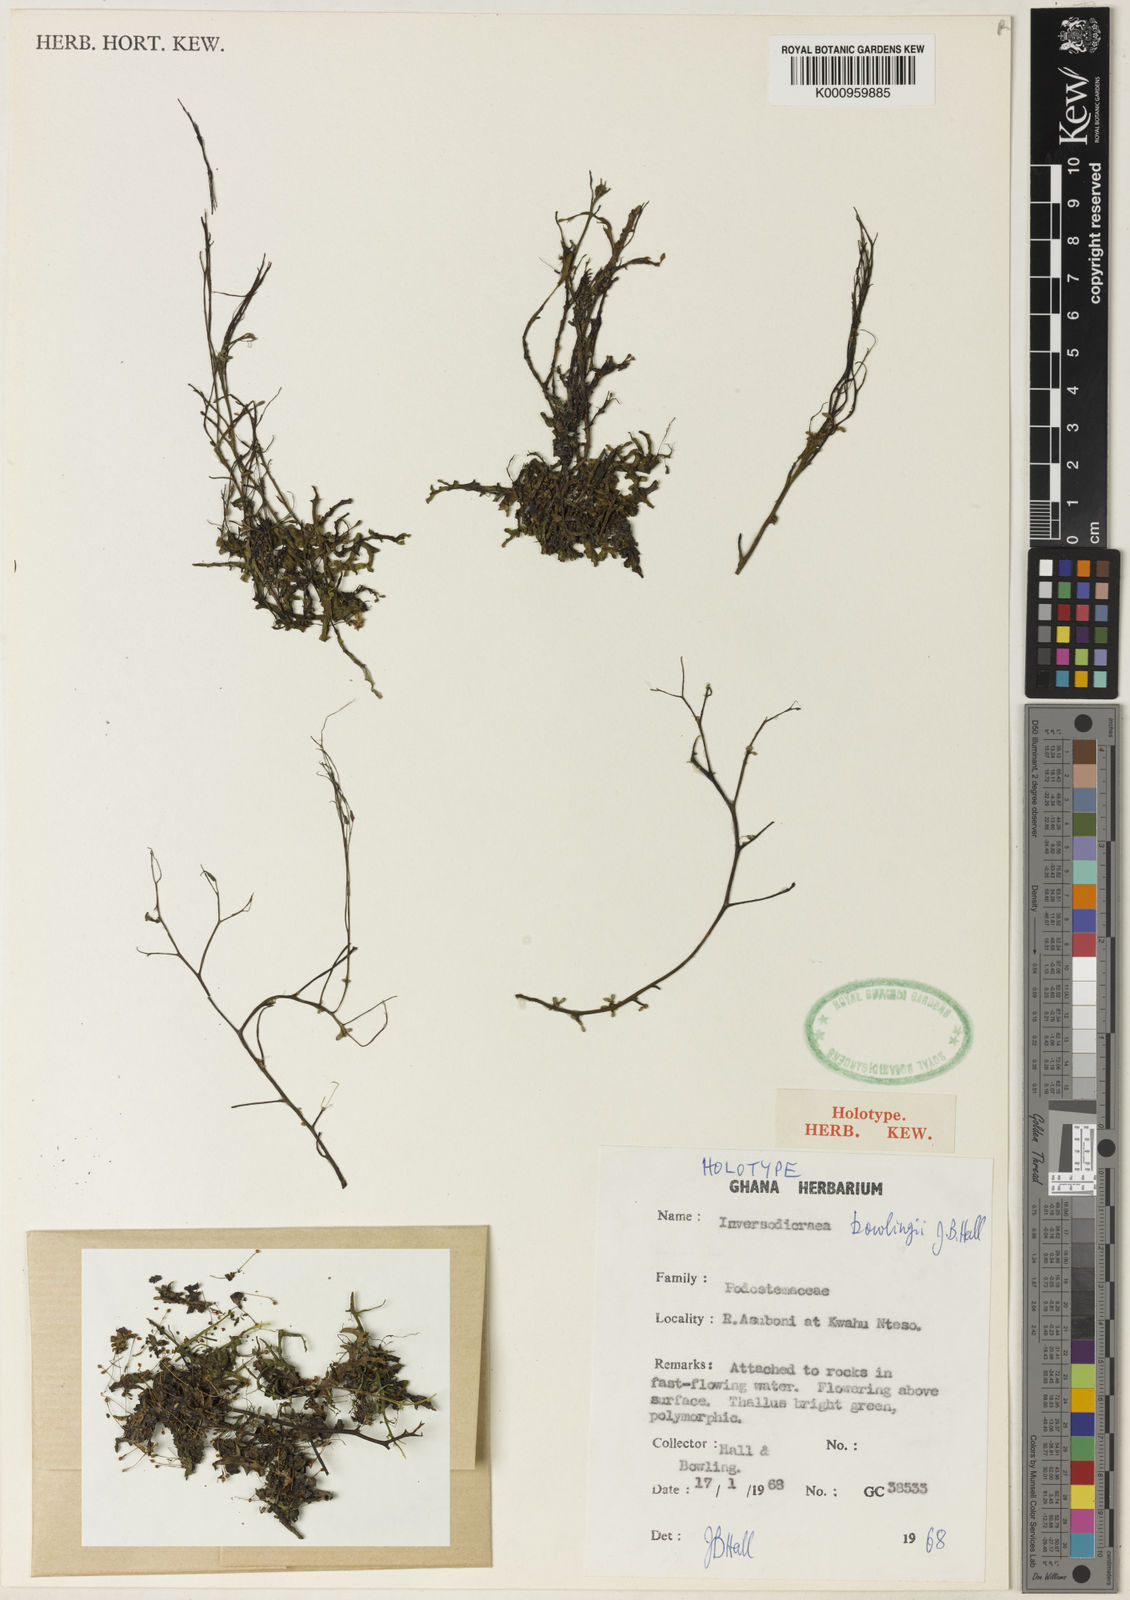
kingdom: Plantae
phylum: Tracheophyta
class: Magnoliopsida
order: Malpighiales
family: Podostemaceae
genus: Ledermanniella
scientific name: Ledermanniella bowlingii
